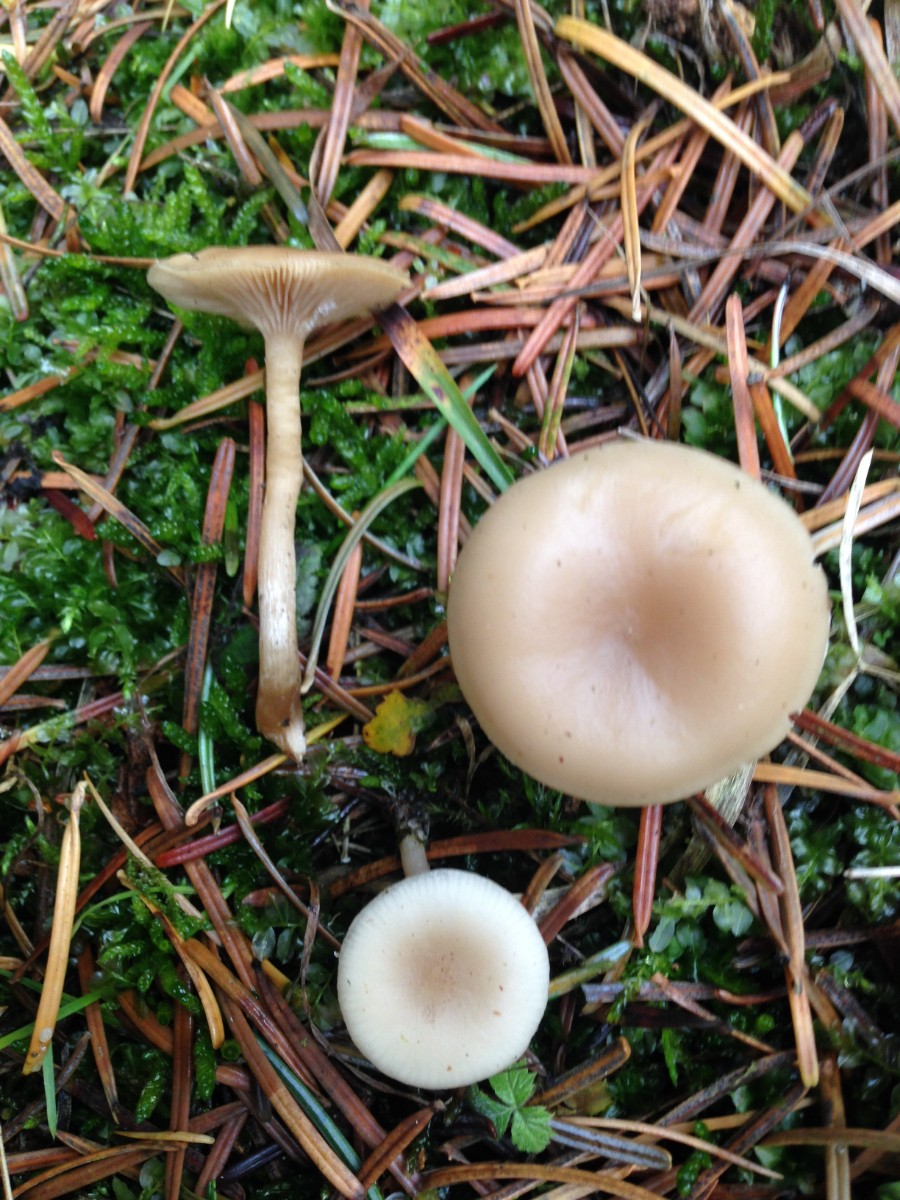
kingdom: Fungi
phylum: Basidiomycota
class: Agaricomycetes
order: Agaricales
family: Tricholomataceae
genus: Clitocybe
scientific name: Clitocybe fragrans
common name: vellugtende tragthat
